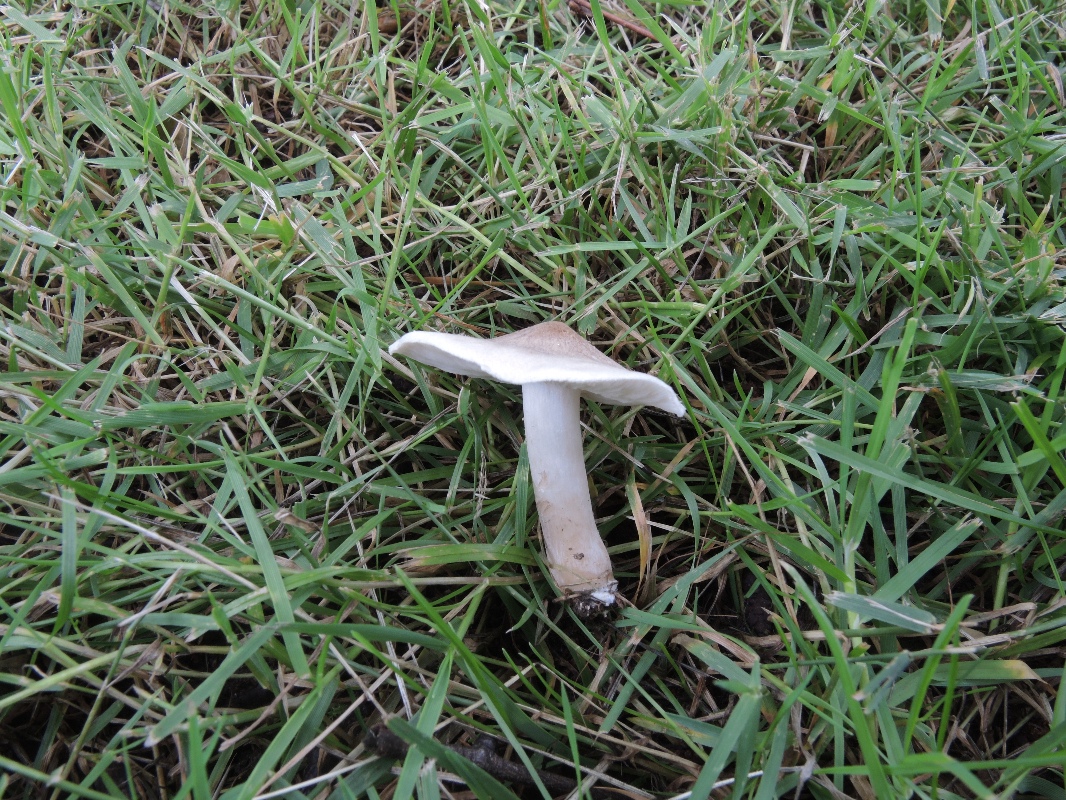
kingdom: Fungi
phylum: Basidiomycota
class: Agaricomycetes
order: Agaricales
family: Tricholomataceae
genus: Tricholoma
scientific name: Tricholoma argyraceum
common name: spids ridderhat
